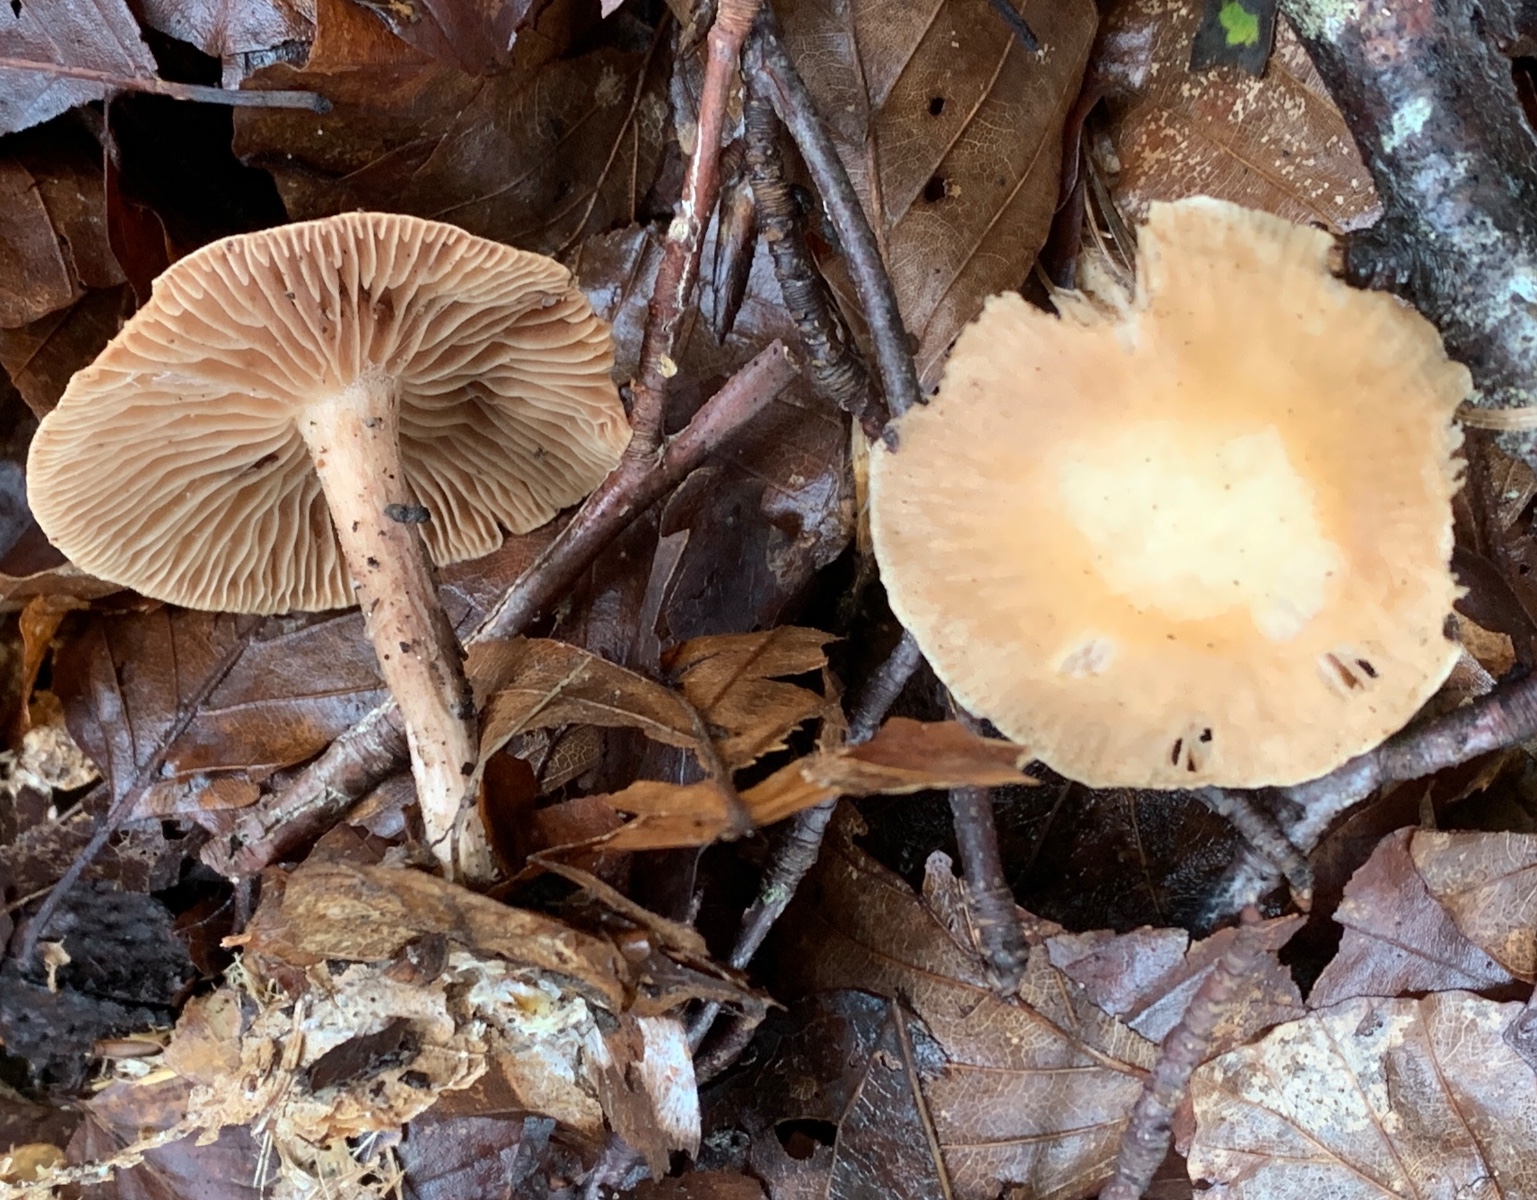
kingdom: Fungi
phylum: Basidiomycota
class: Agaricomycetes
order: Agaricales
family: Omphalotaceae
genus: Collybiopsis
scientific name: Collybiopsis peronata
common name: bestøvlet fladhat
